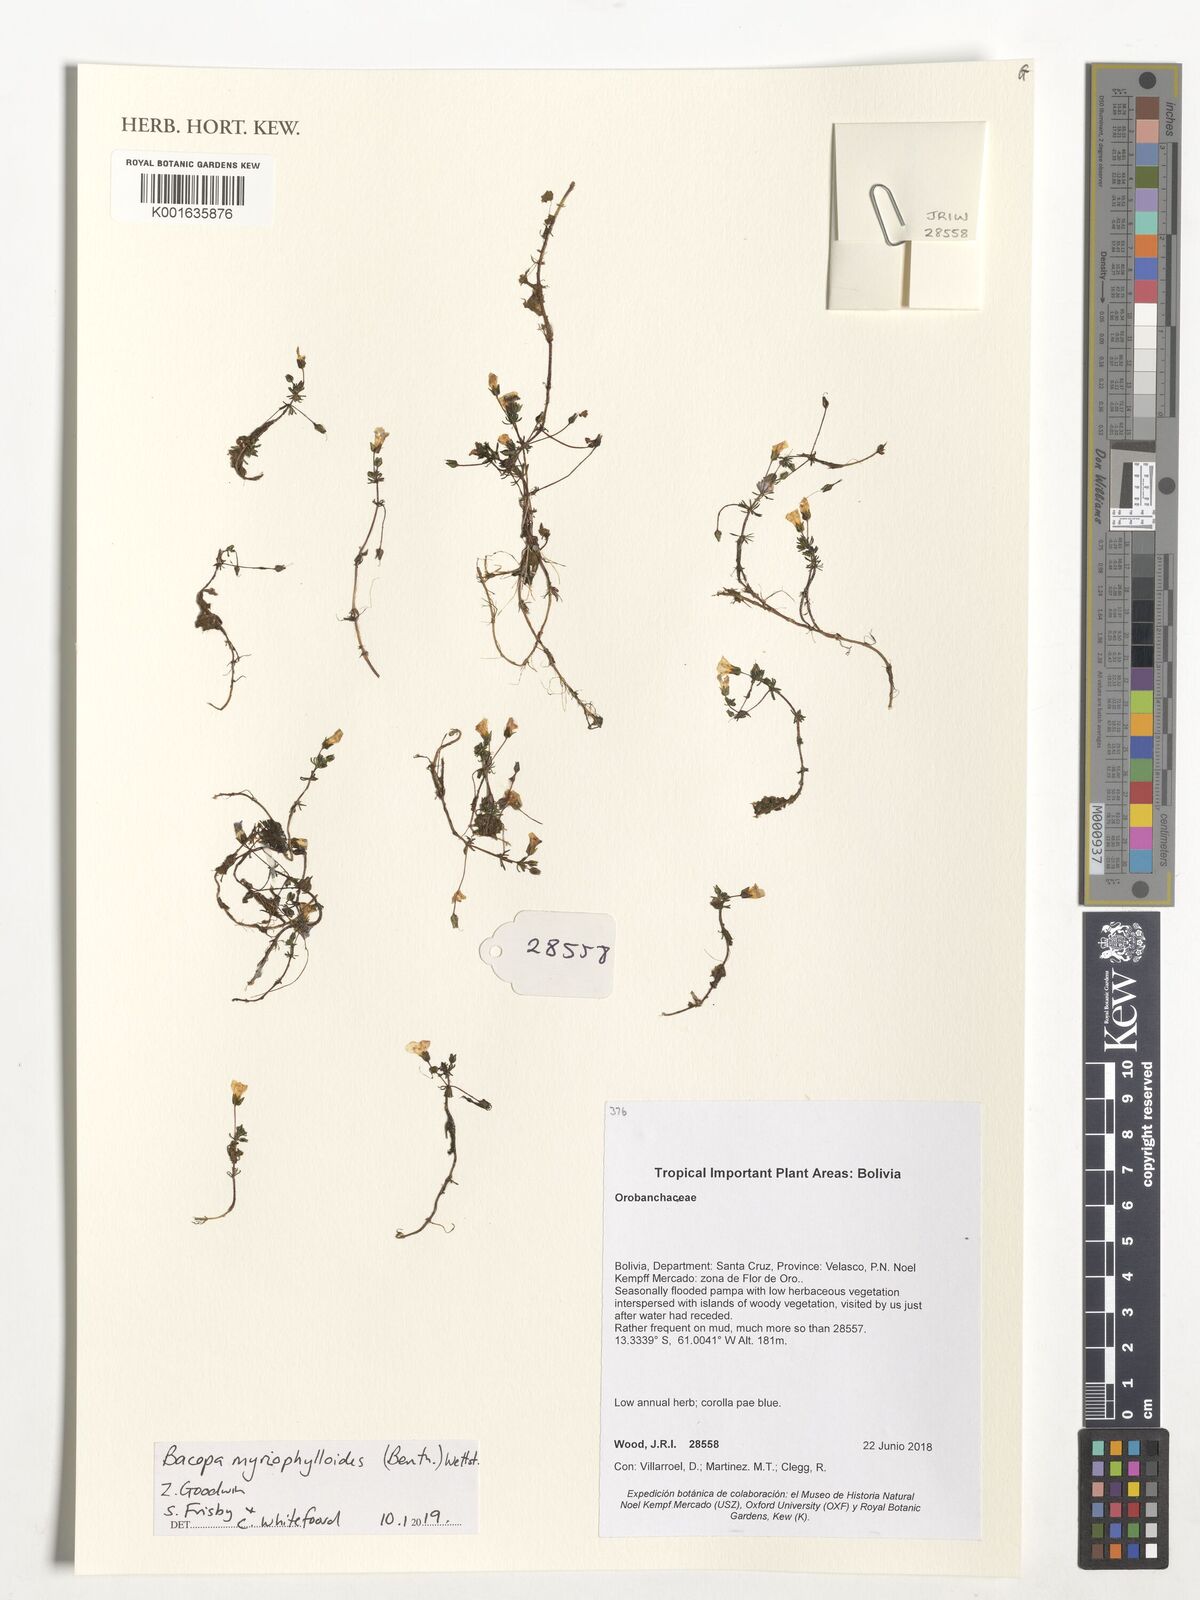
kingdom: Plantae
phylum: Tracheophyta
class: Magnoliopsida
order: Lamiales
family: Plantaginaceae
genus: Bacopa
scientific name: Bacopa myriophylloides
